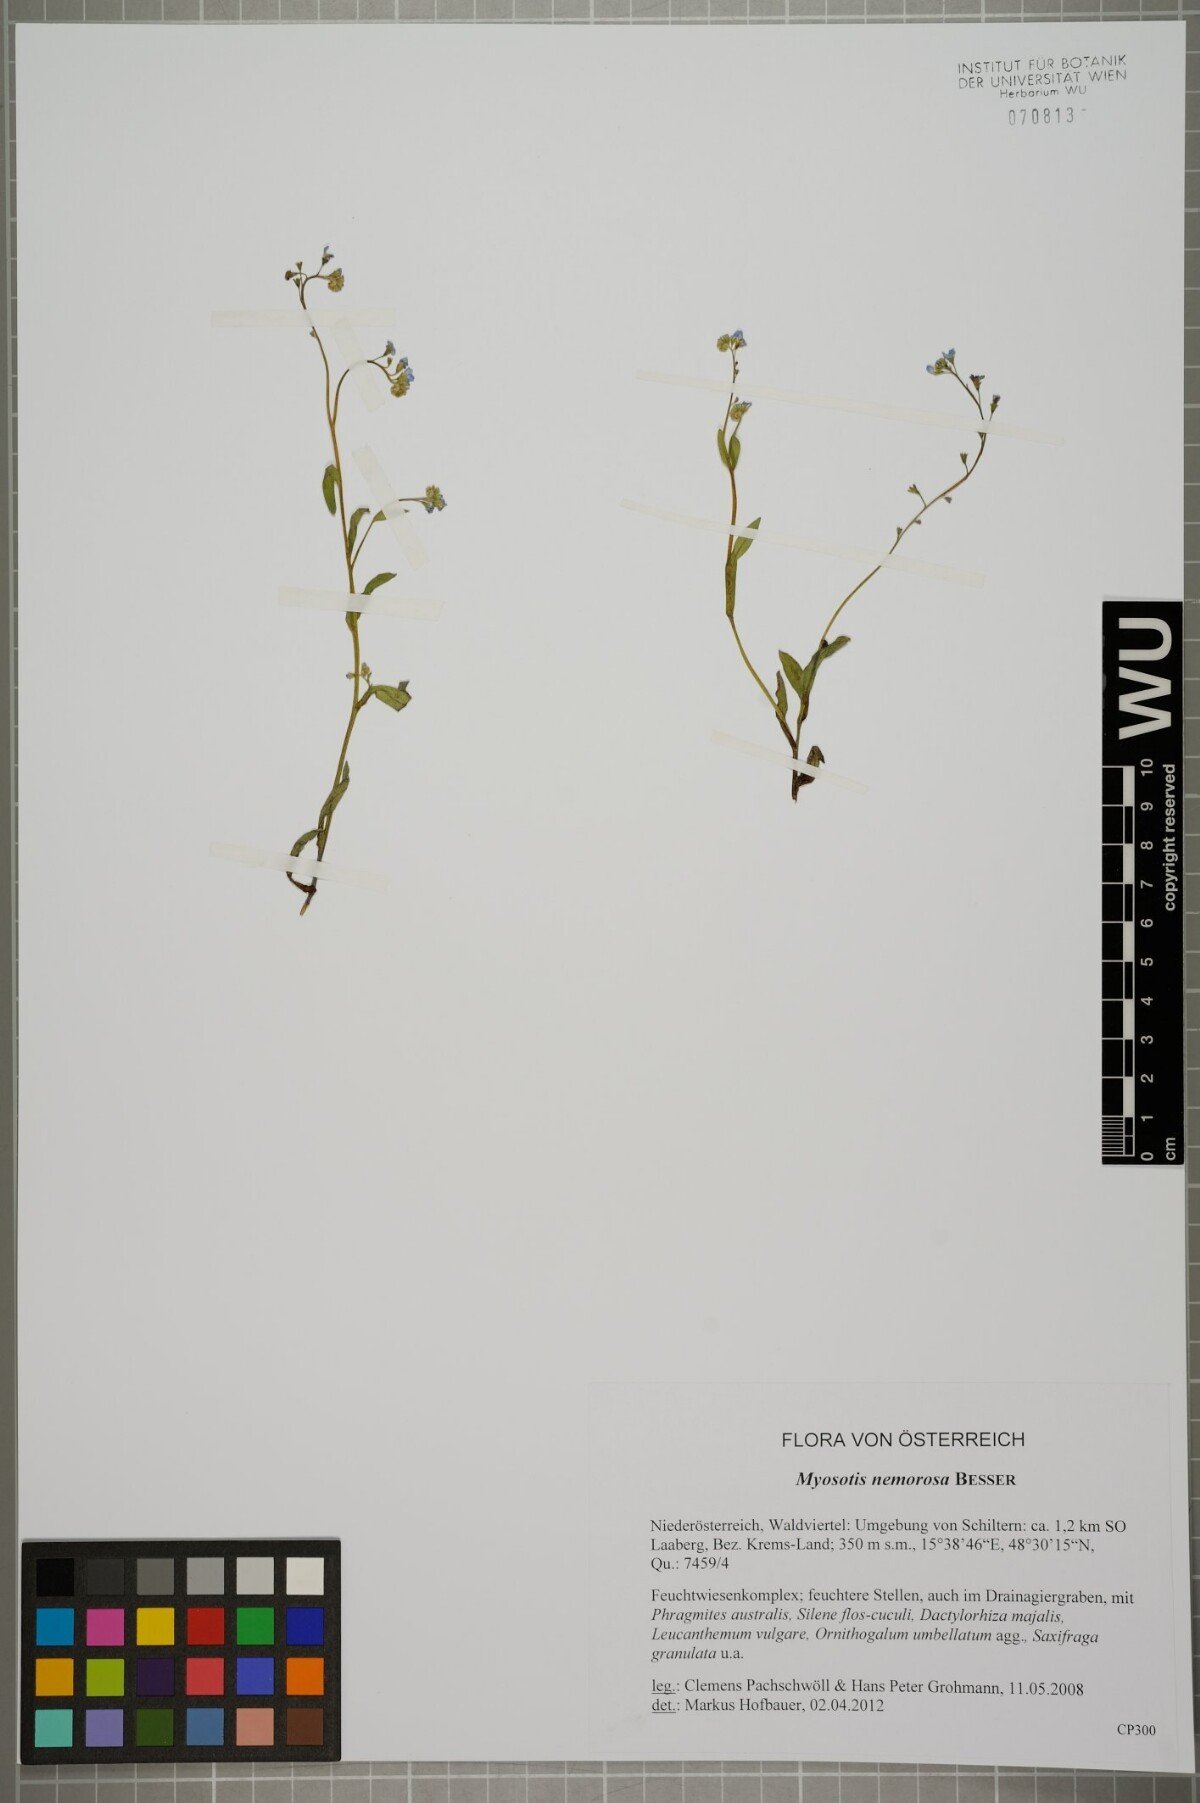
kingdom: Plantae
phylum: Tracheophyta
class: Magnoliopsida
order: Boraginales
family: Boraginaceae
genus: Myosotis
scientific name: Myosotis nemorosa
